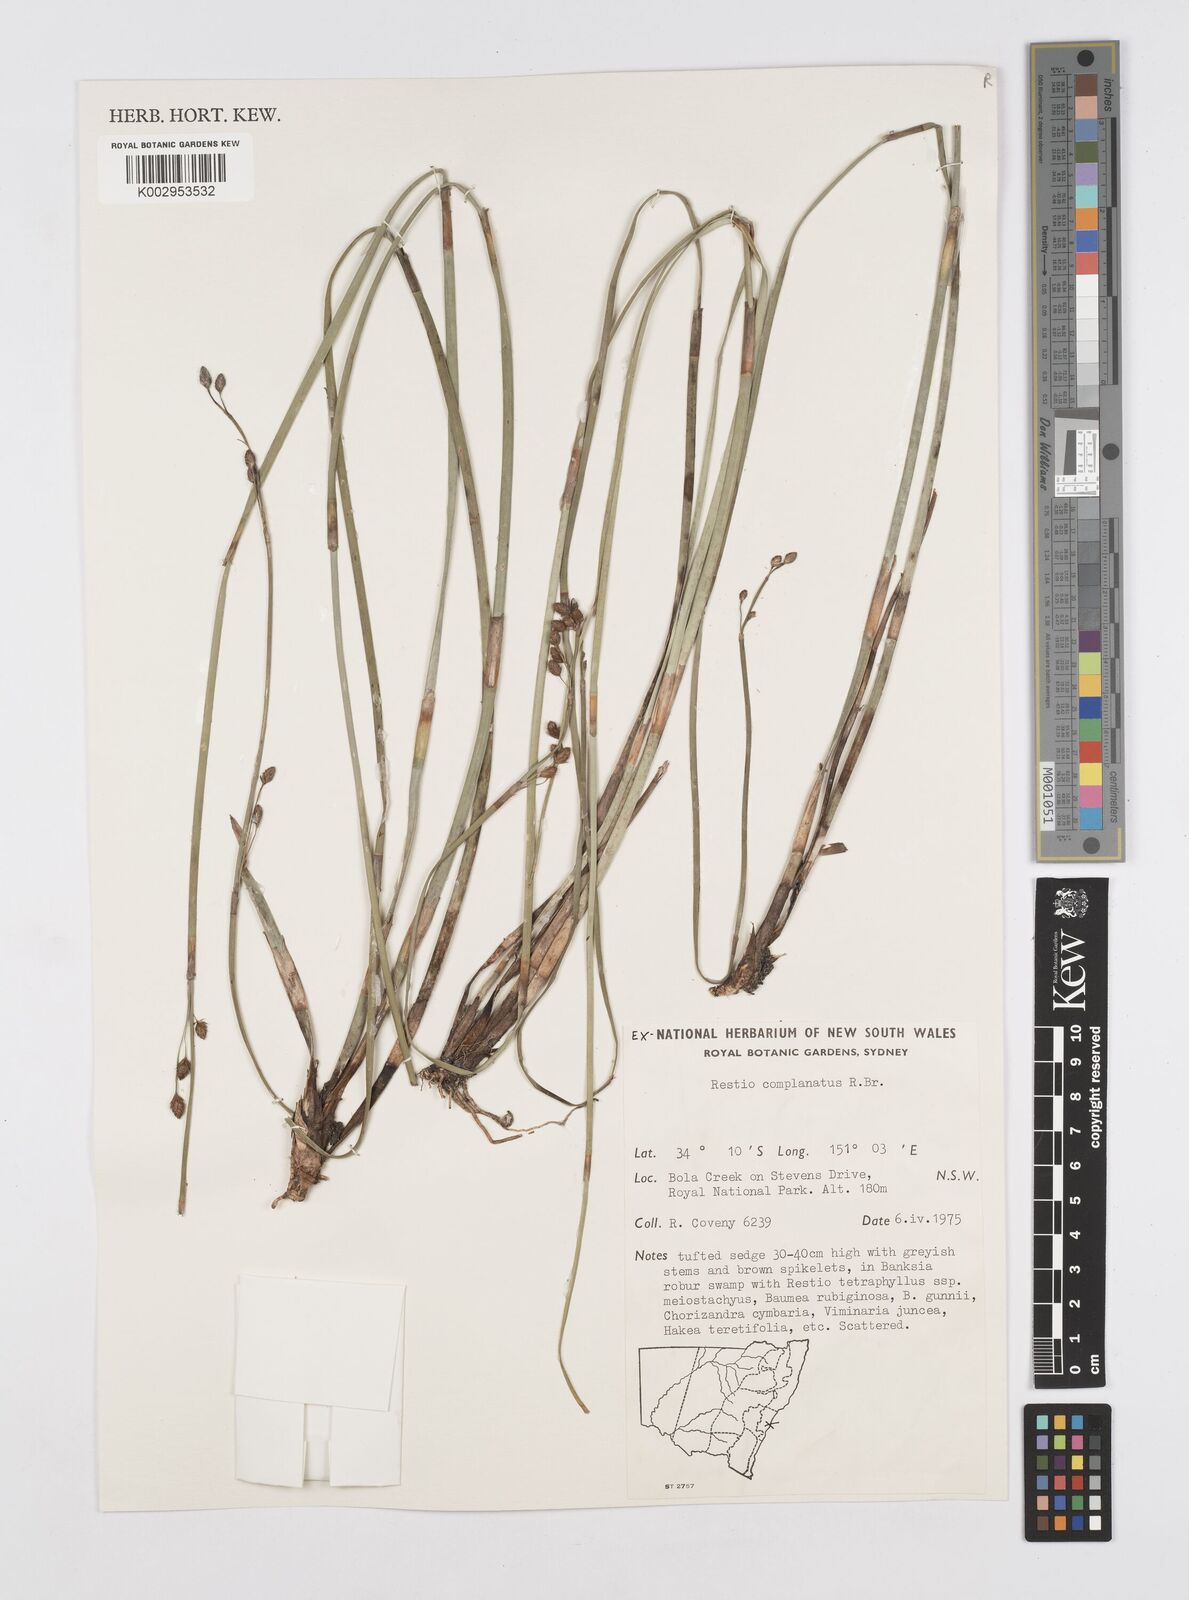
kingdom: Plantae
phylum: Tracheophyta
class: Liliopsida
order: Poales
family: Restionaceae
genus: Eurychorda
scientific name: Eurychorda complanata
